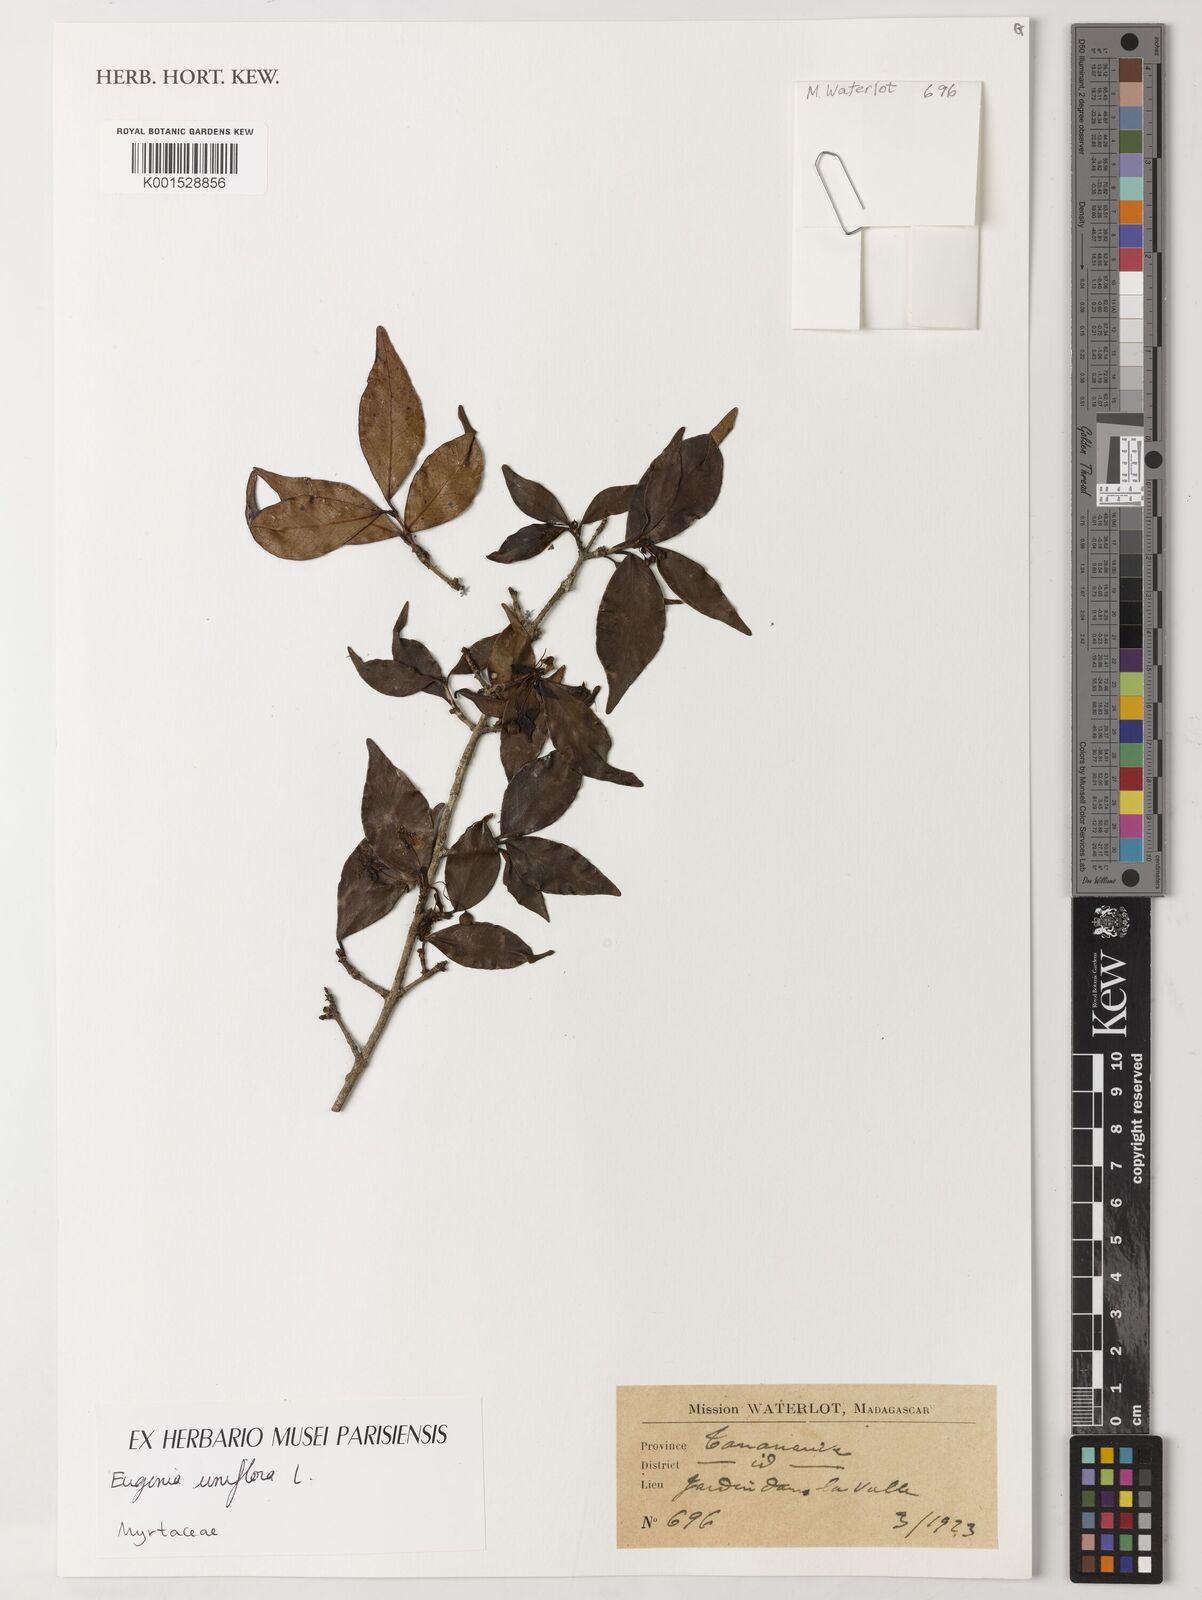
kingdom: Plantae
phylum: Tracheophyta
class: Magnoliopsida
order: Myrtales
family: Myrtaceae
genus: Eugenia
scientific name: Eugenia uniflora
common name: Surinam cherry
